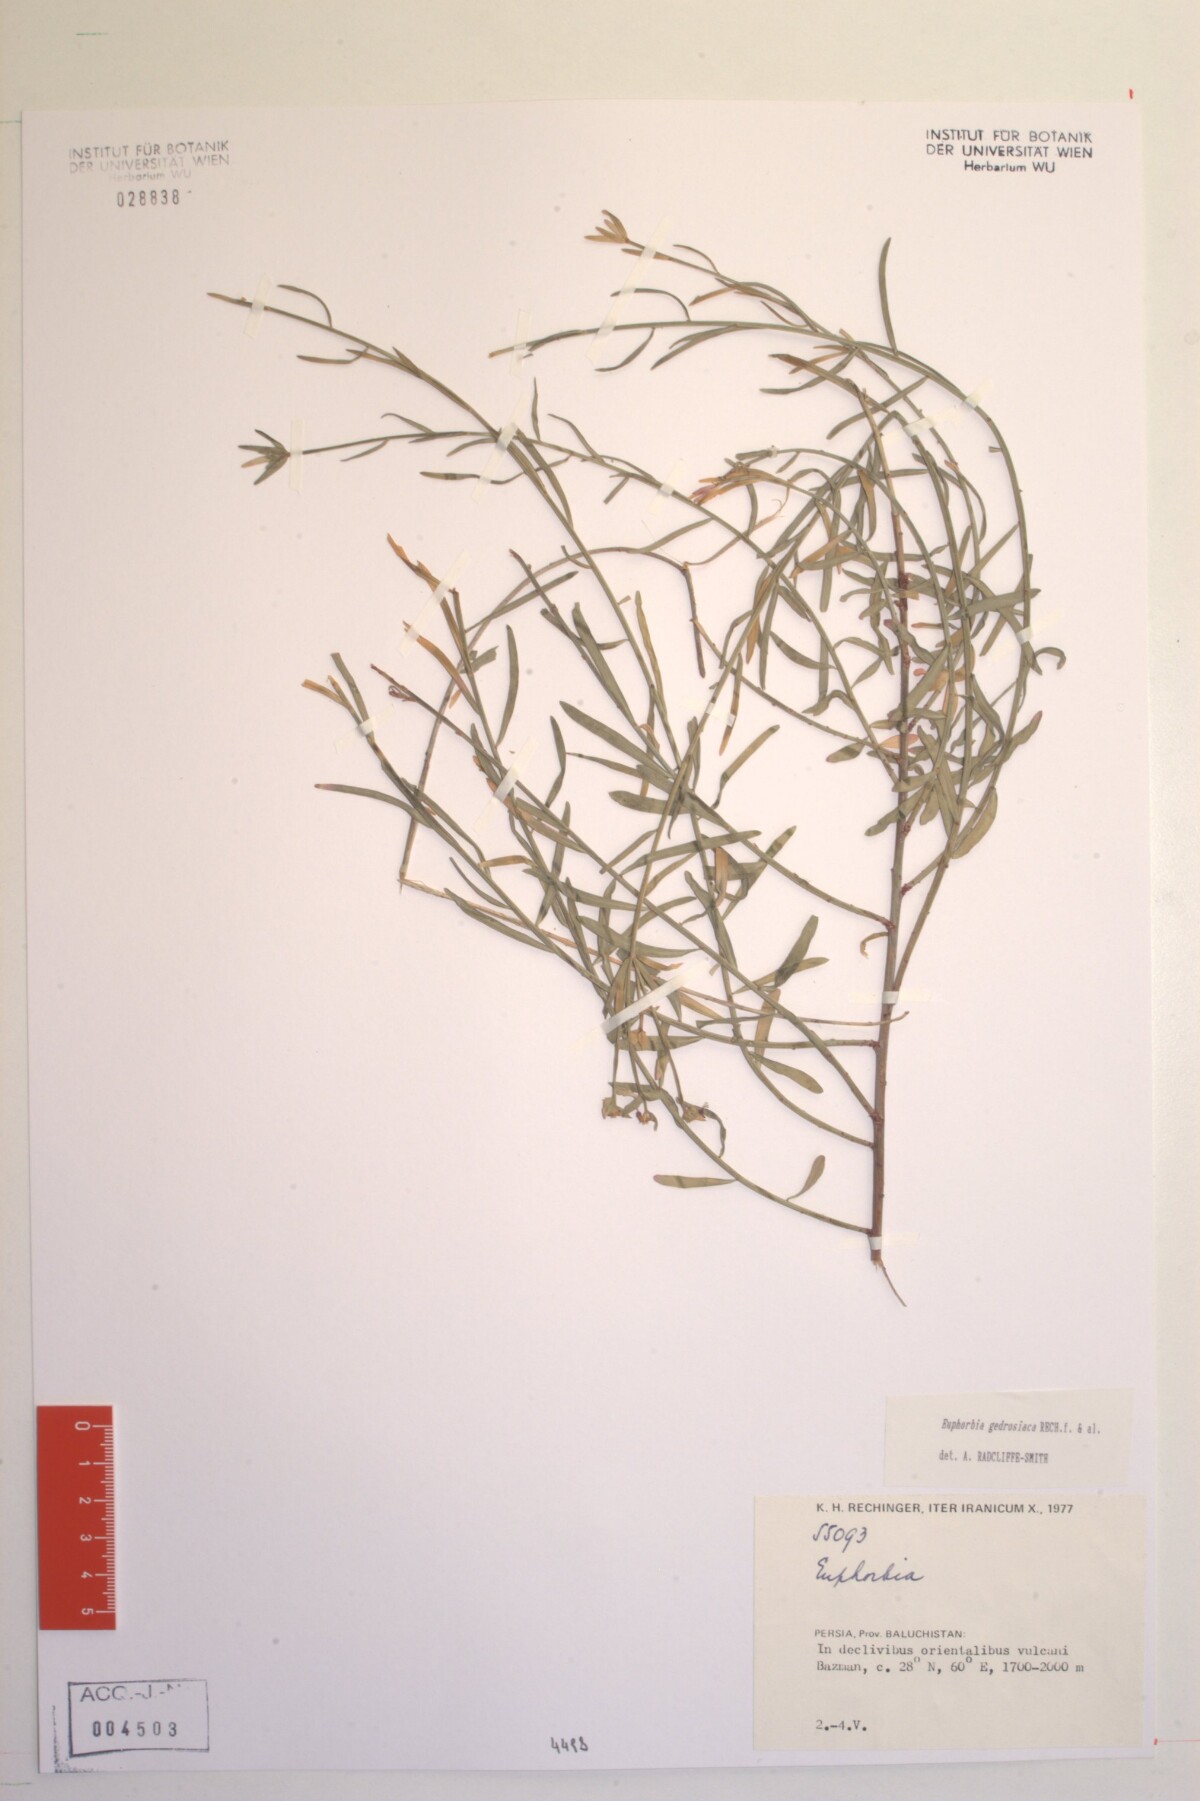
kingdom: Plantae
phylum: Tracheophyta
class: Magnoliopsida
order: Malpighiales
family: Euphorbiaceae
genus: Euphorbia
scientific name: Euphorbia gedrosiaca
